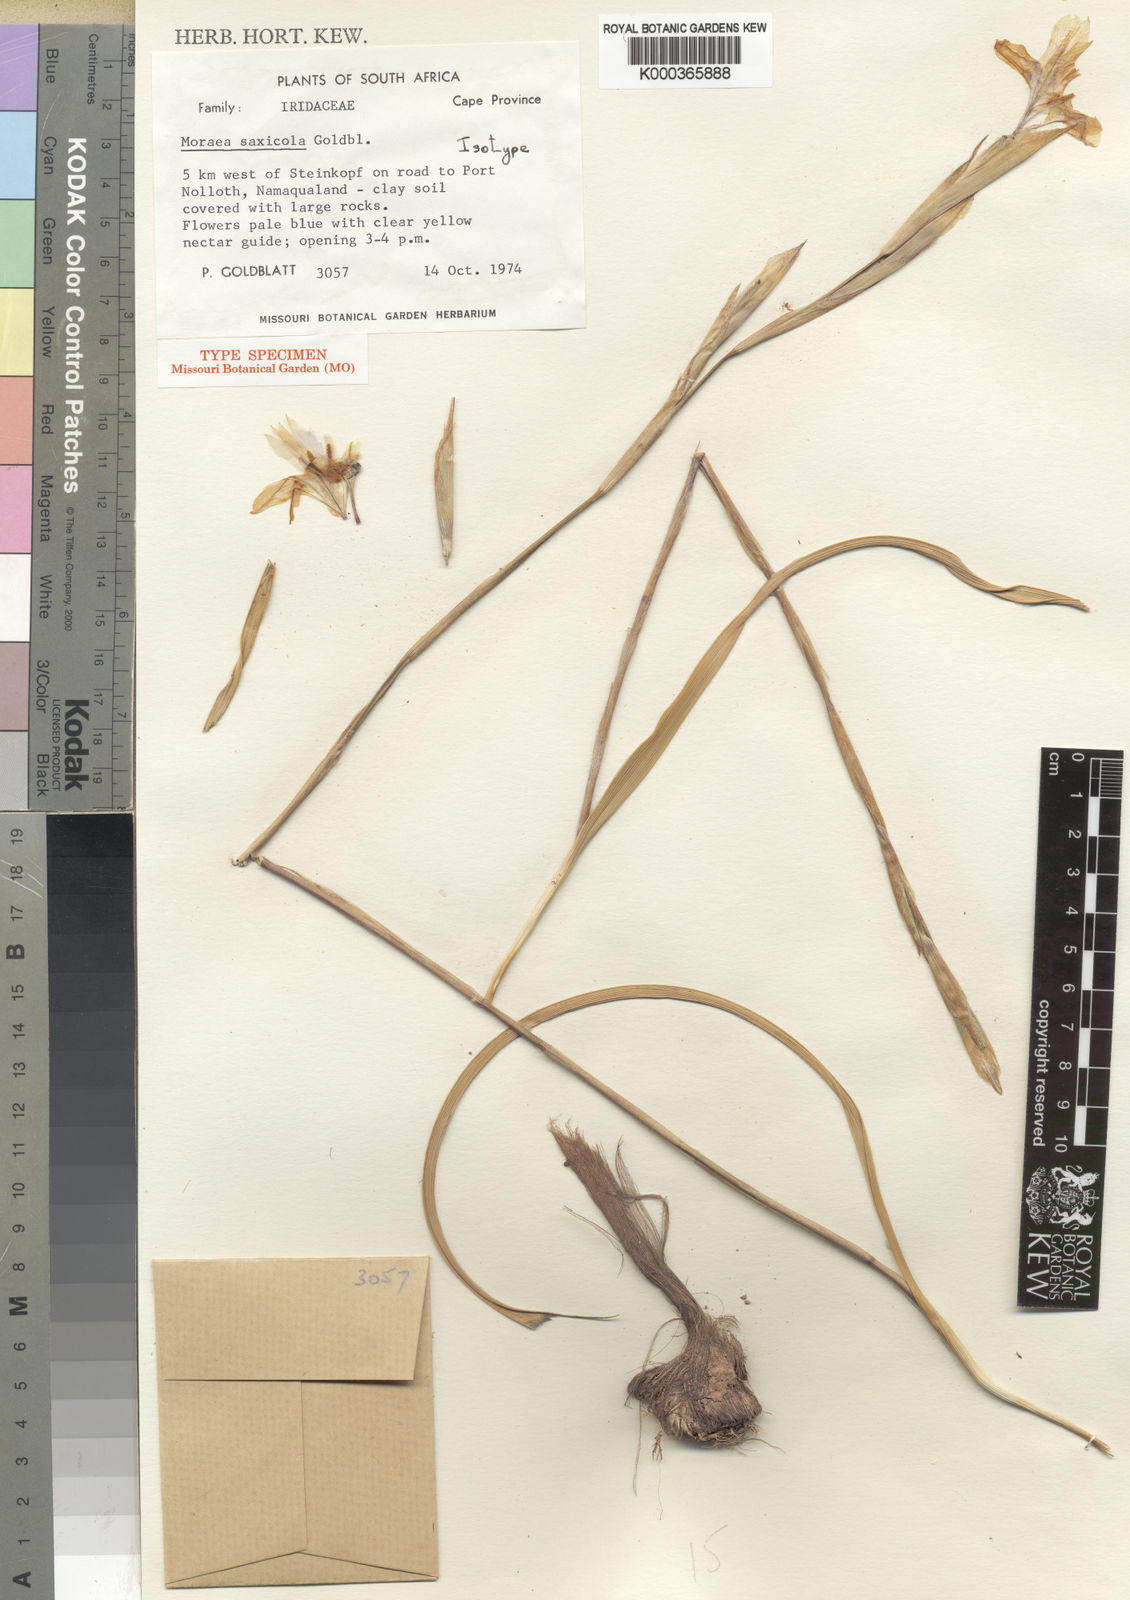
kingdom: Plantae
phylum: Tracheophyta
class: Liliopsida
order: Asparagales
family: Iridaceae
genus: Moraea
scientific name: Moraea saxicola
